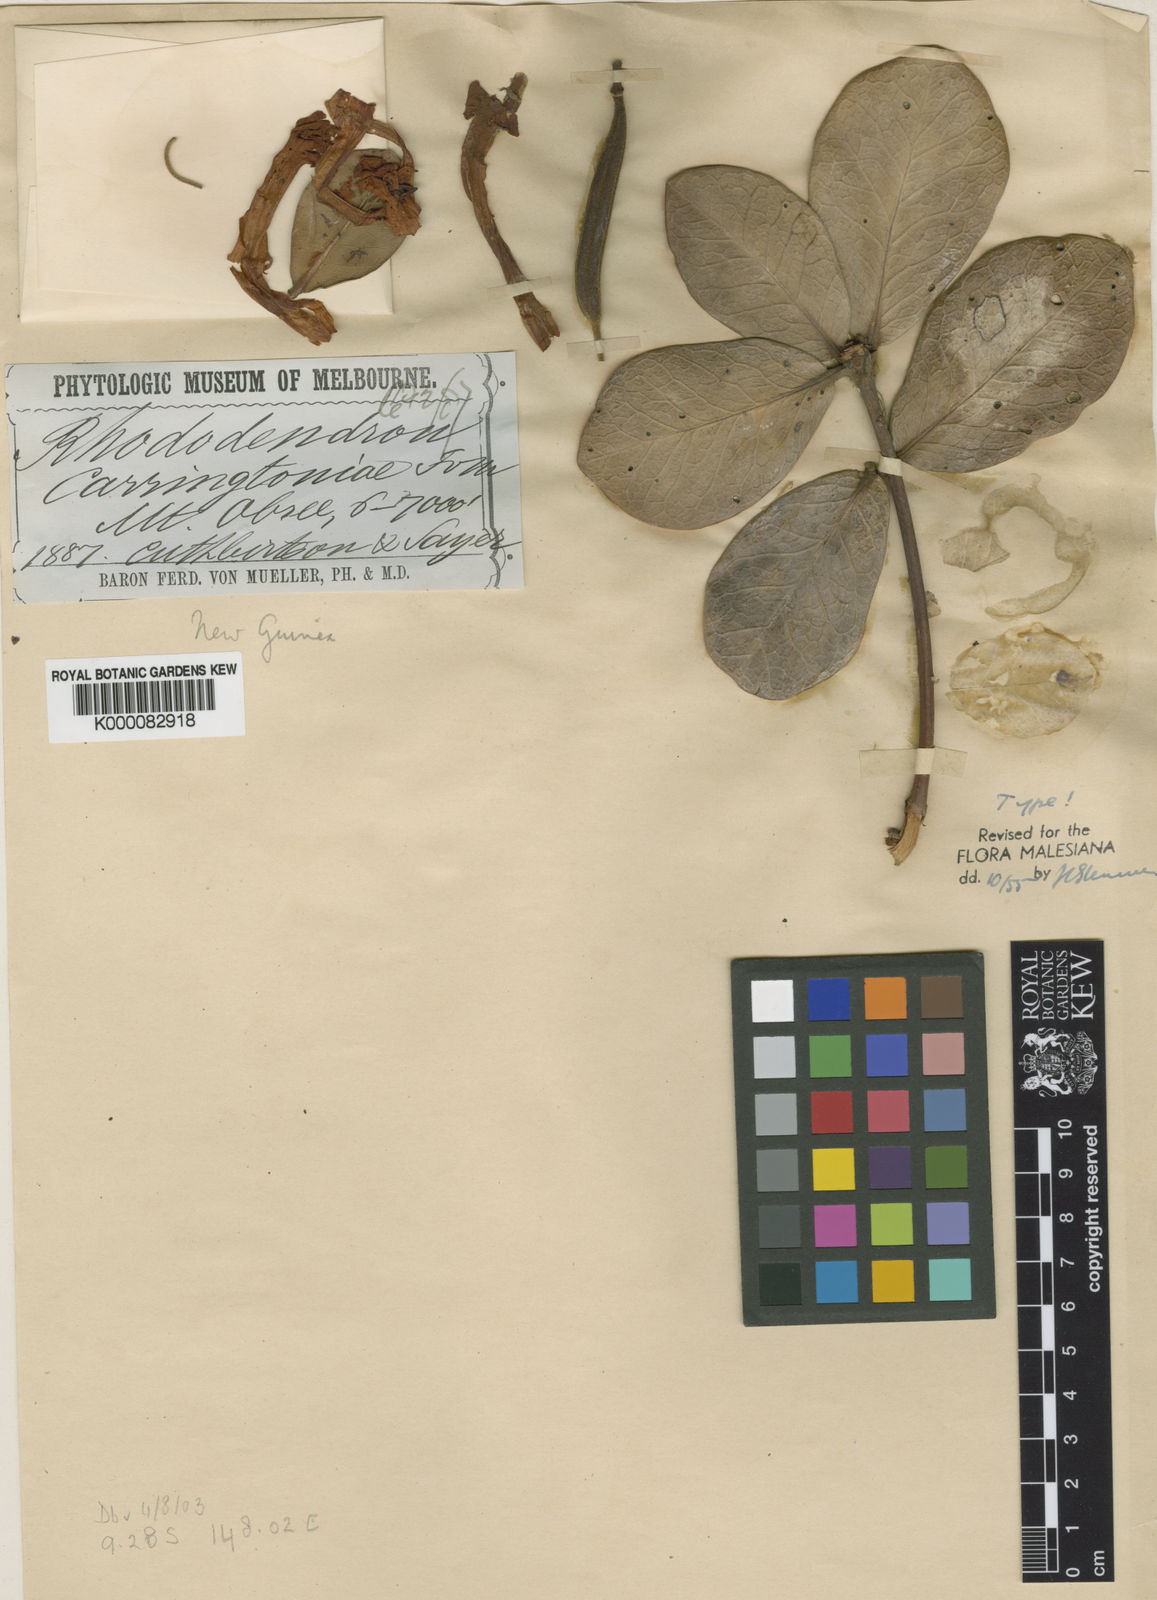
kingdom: Plantae
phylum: Tracheophyta
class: Magnoliopsida
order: Ericales
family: Ericaceae
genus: Rhododendron
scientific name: Rhododendron carringtoniae
